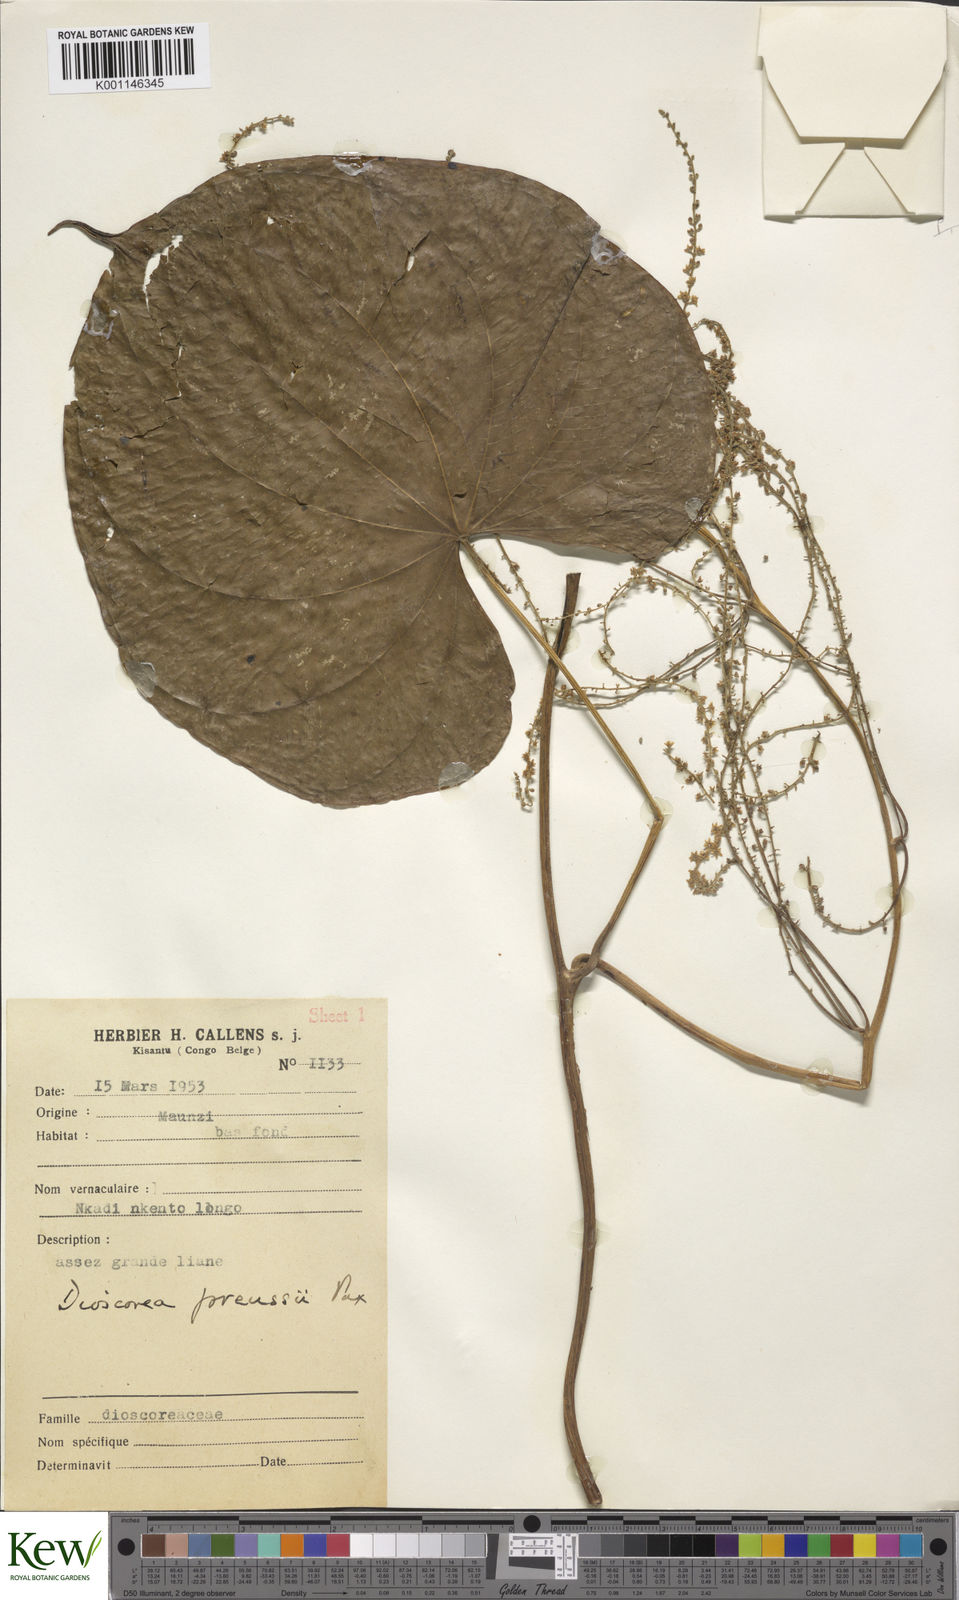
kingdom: Plantae
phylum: Tracheophyta
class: Liliopsida
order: Dioscoreales
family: Dioscoreaceae
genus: Dioscorea
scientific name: Dioscorea preussii
